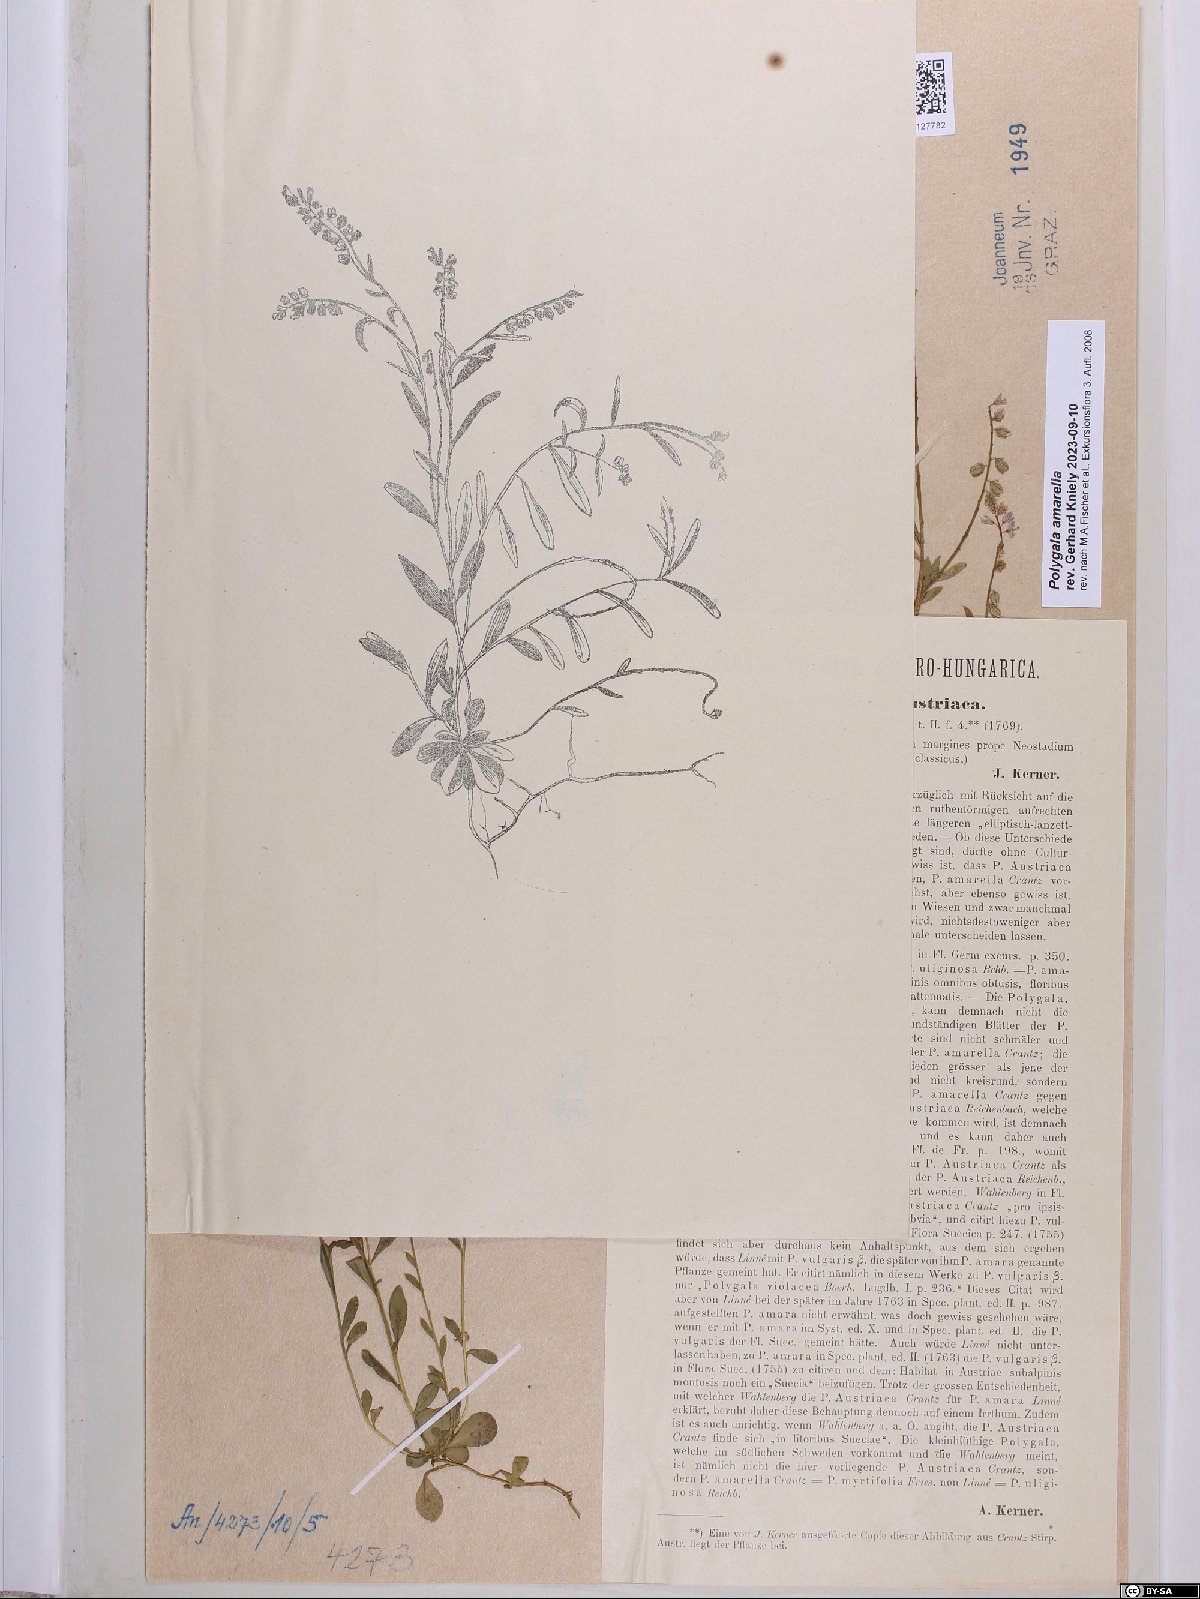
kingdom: Plantae
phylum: Tracheophyta
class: Magnoliopsida
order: Fabales
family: Polygalaceae
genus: Polygala
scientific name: Polygala amarella
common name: Dwarf milkwort
